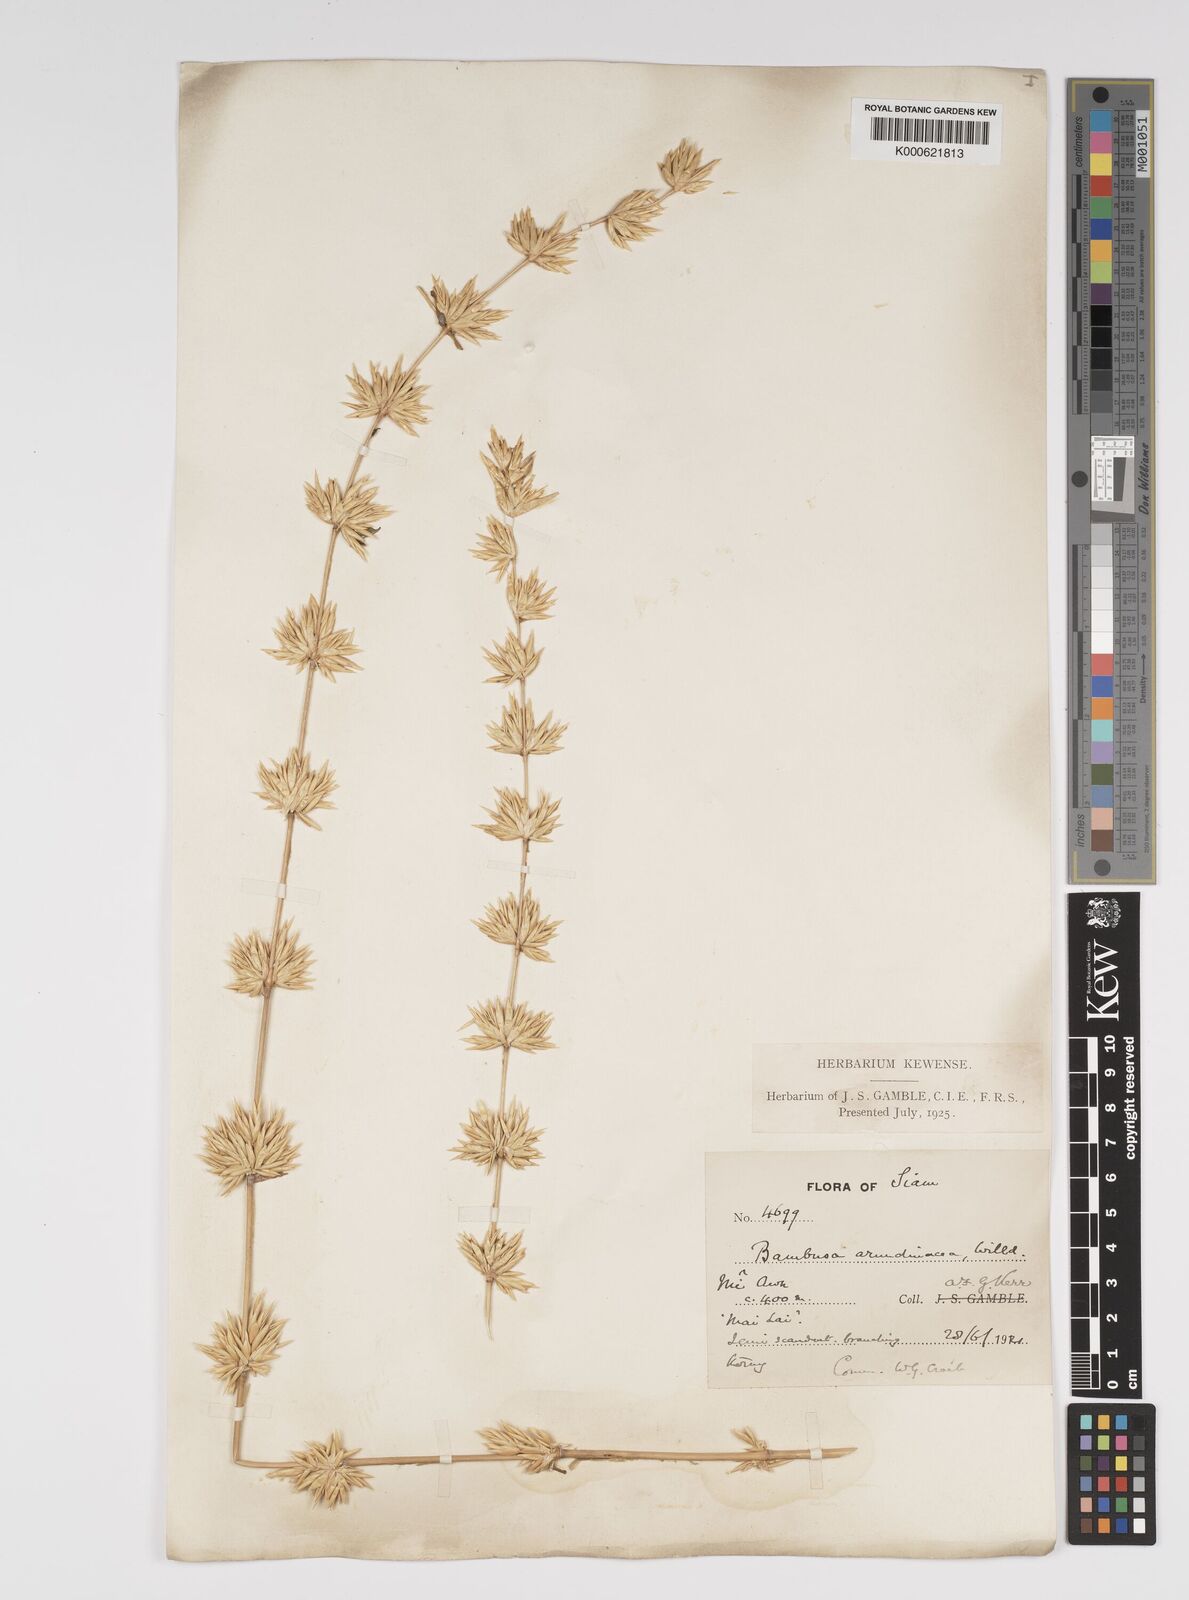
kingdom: Plantae
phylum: Tracheophyta
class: Liliopsida
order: Poales
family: Poaceae
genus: Bambusa
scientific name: Bambusa bambos
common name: Indian thorny bamboo
